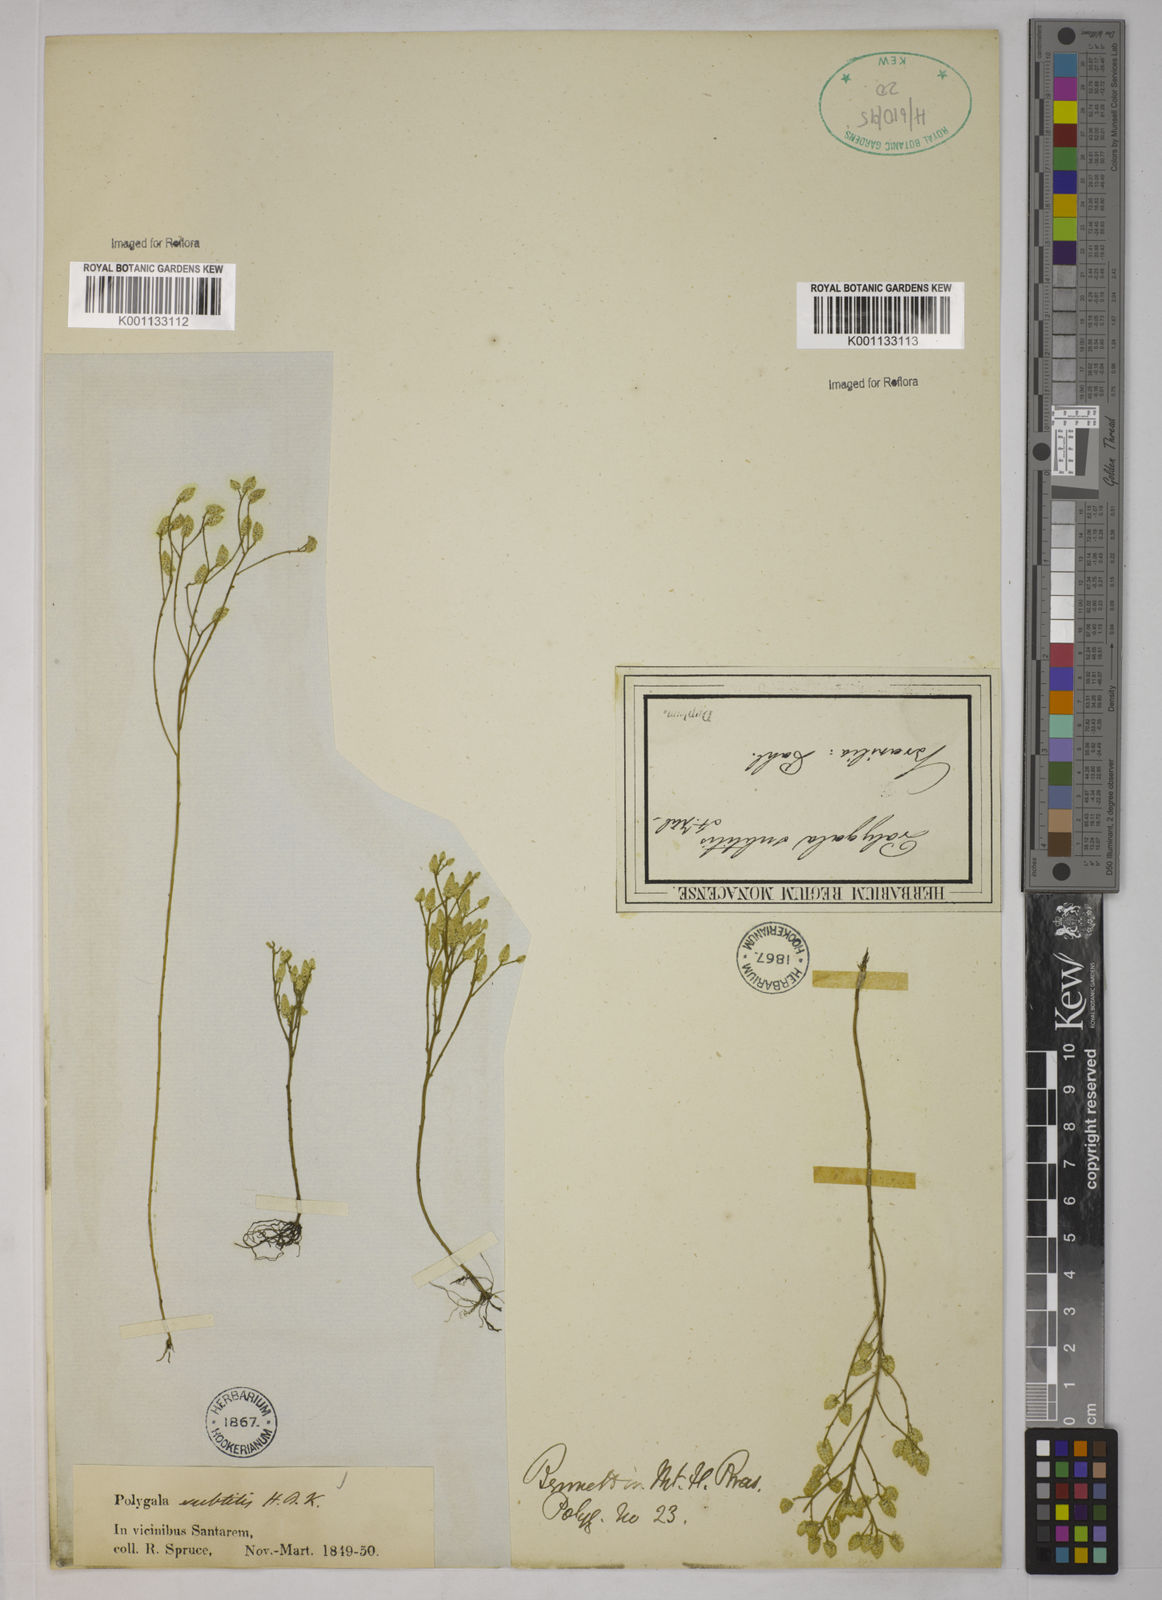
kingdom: Plantae
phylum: Tracheophyta
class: Magnoliopsida
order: Fabales
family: Polygalaceae
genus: Polygala
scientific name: Polygala subtilis
